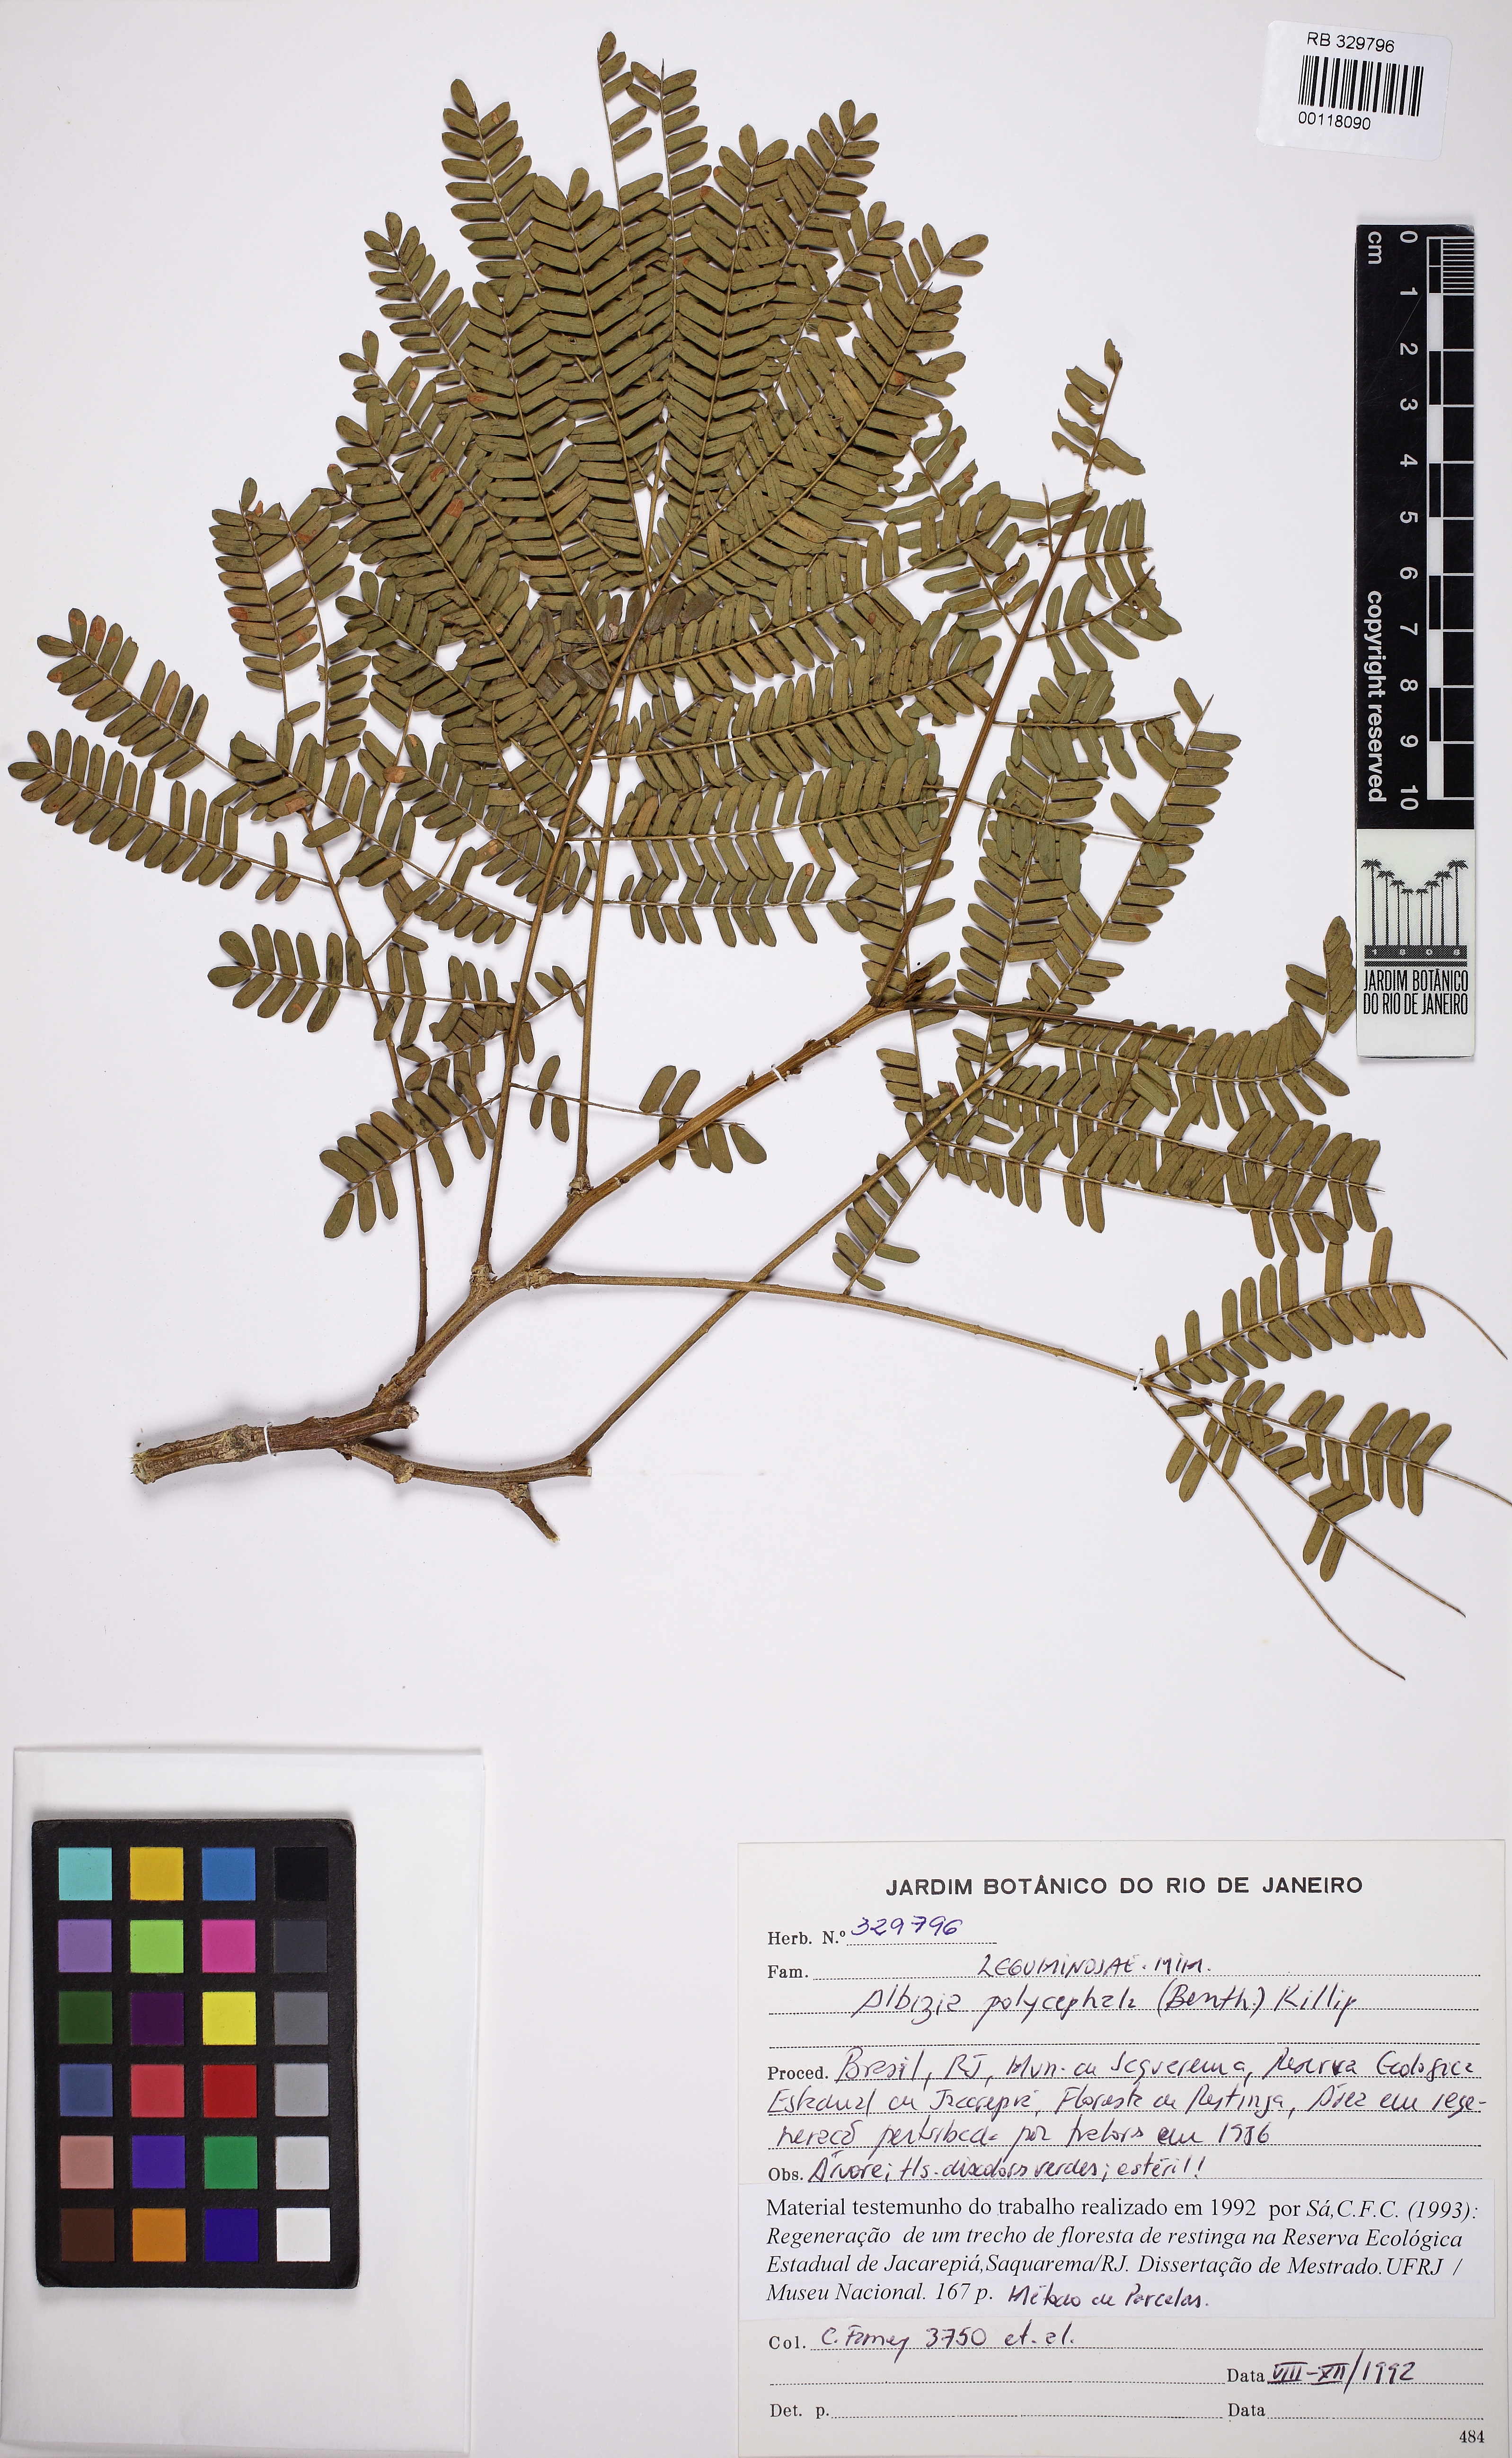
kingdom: Plantae
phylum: Tracheophyta
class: Magnoliopsida
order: Fabales
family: Fabaceae
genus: Albizia
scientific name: Albizia polycephala
